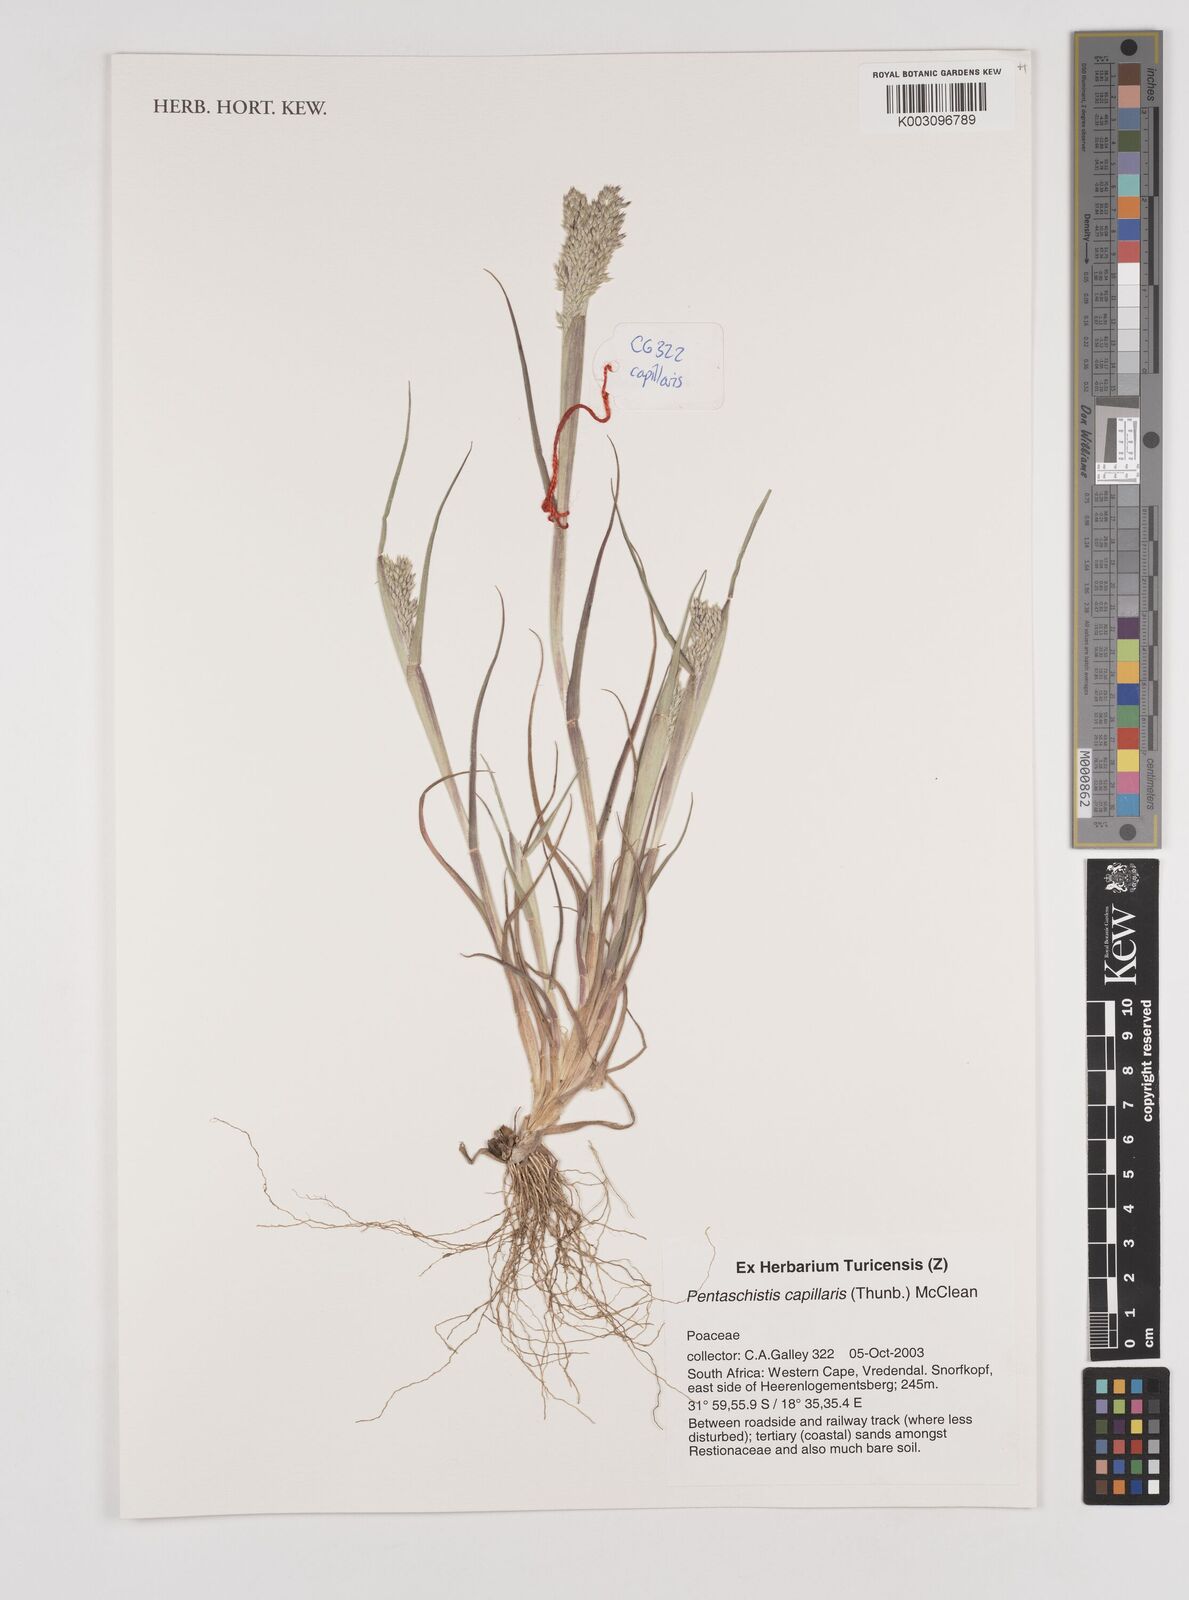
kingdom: Plantae
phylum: Tracheophyta
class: Liliopsida
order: Poales
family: Poaceae
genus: Pentameris
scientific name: Pentameris capillaris
